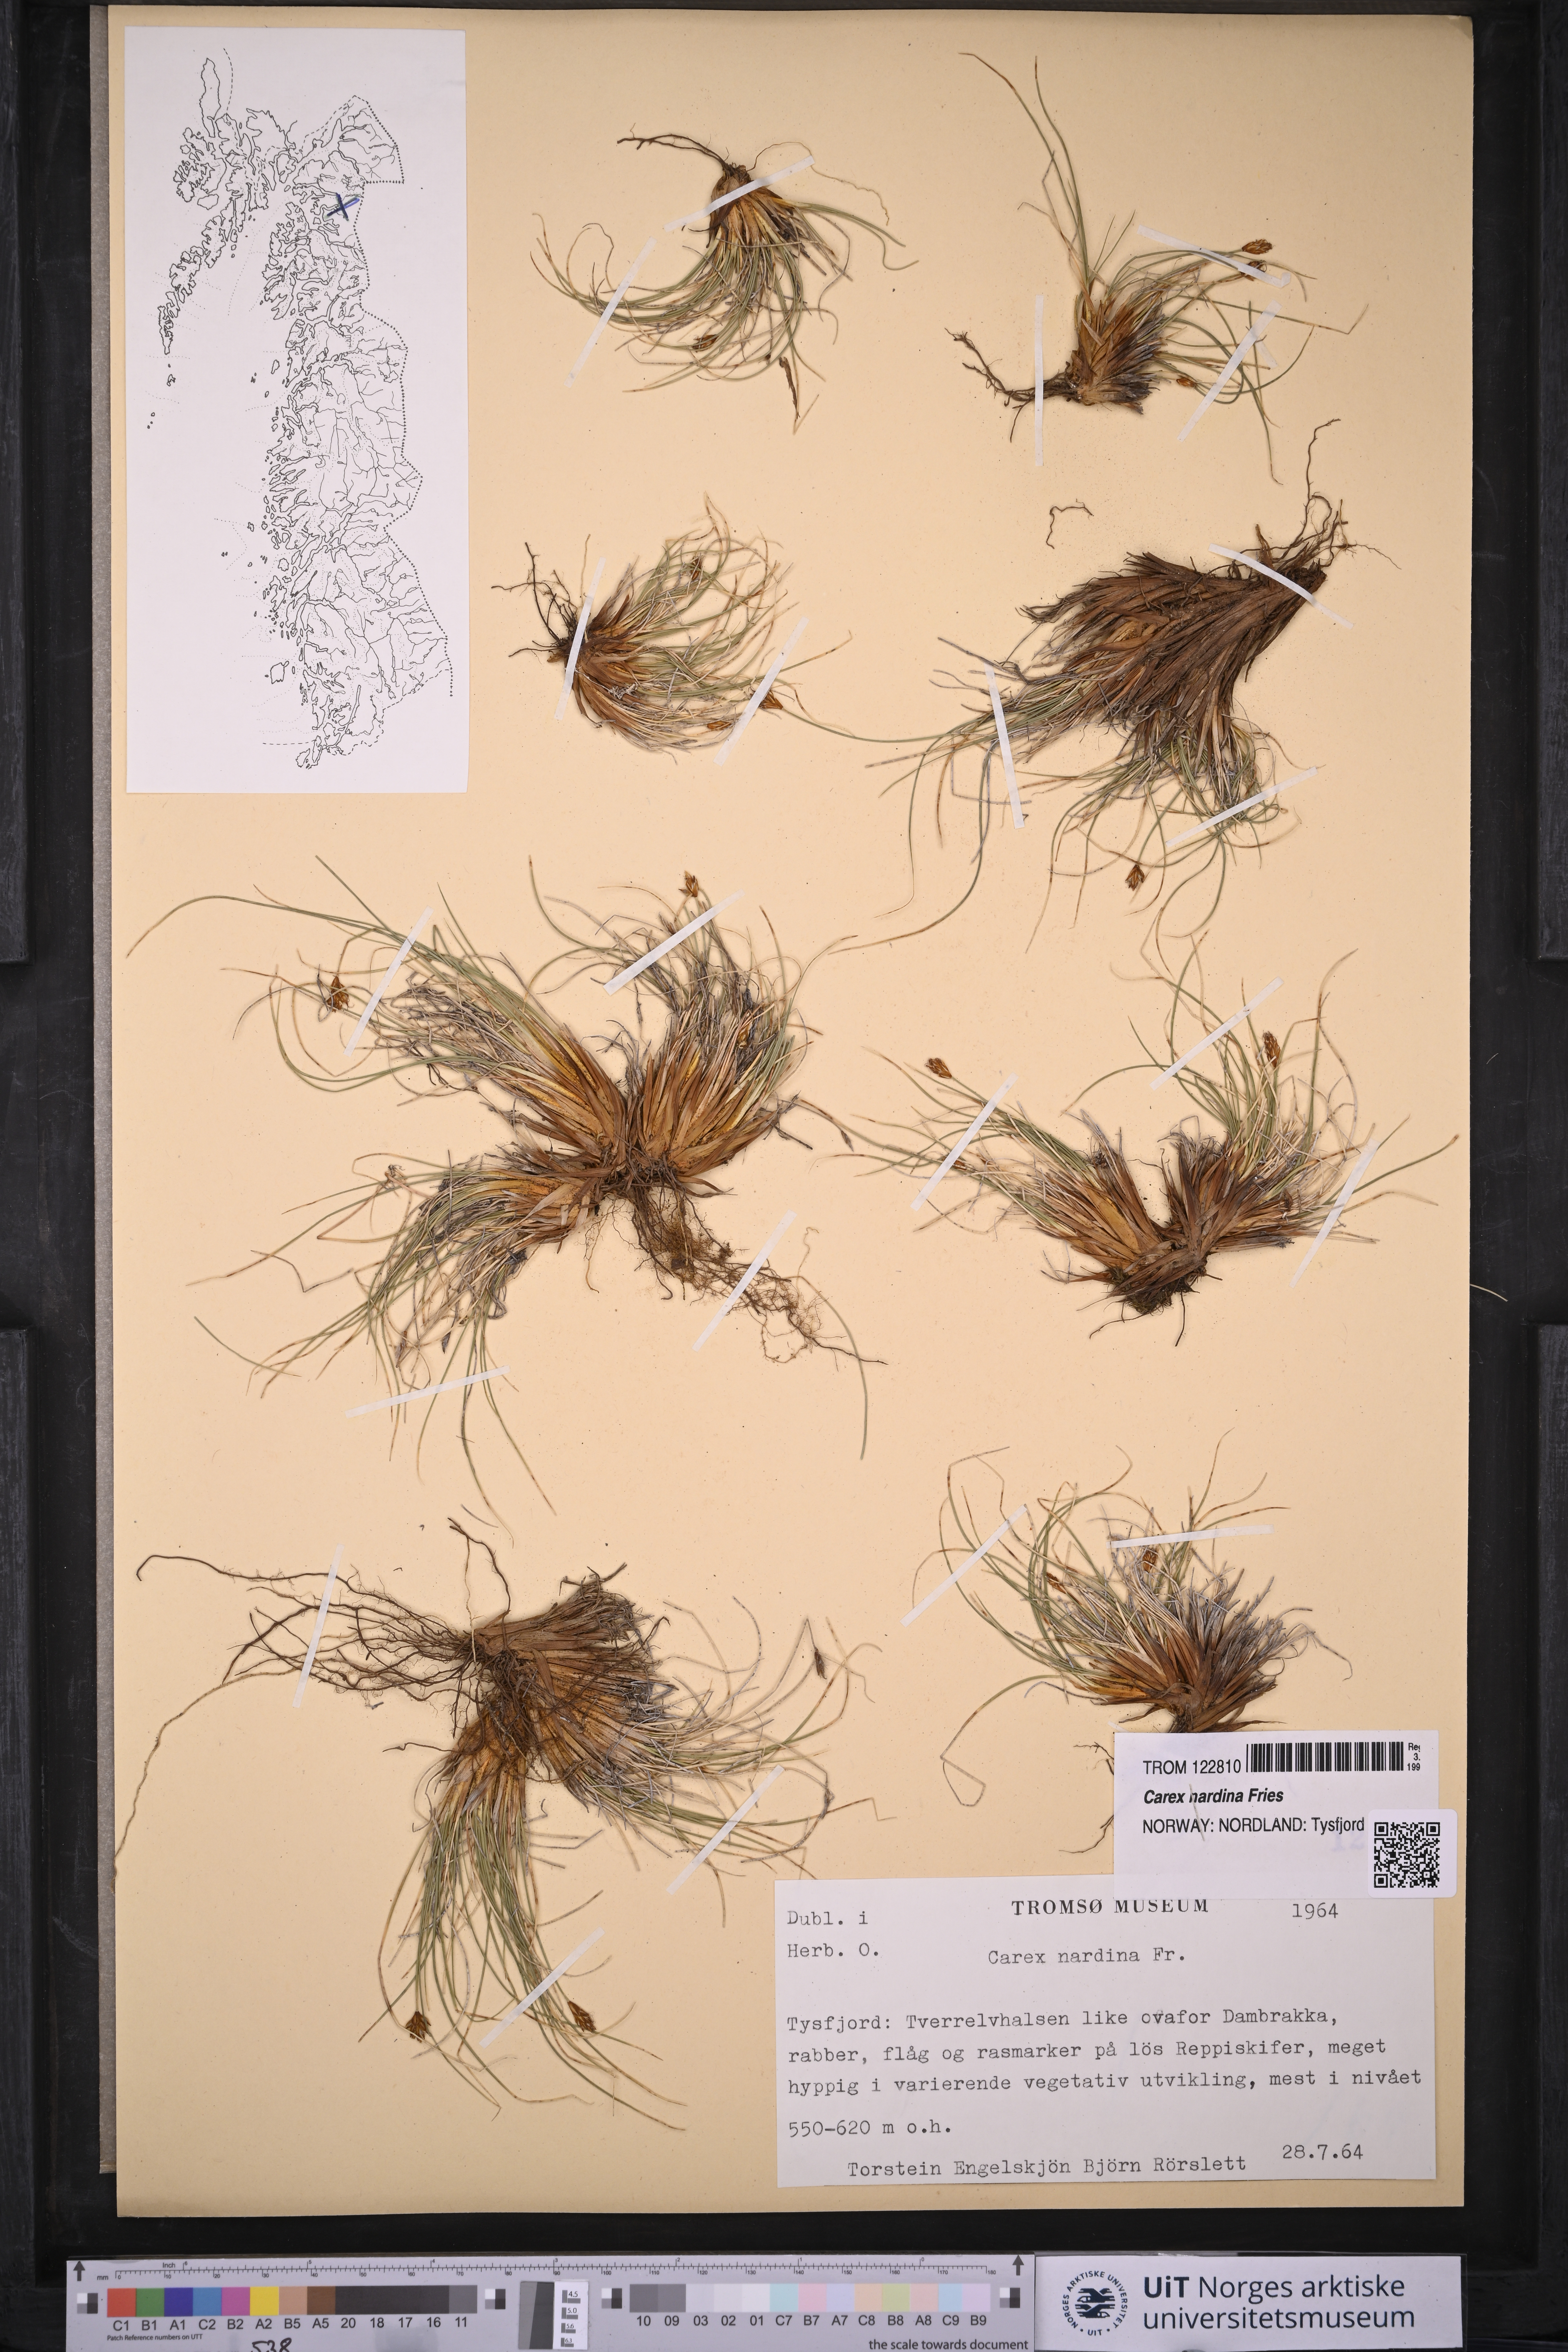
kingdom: Plantae
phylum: Tracheophyta
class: Liliopsida
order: Poales
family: Cyperaceae
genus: Carex
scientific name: Carex nardina
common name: Nard sedge
